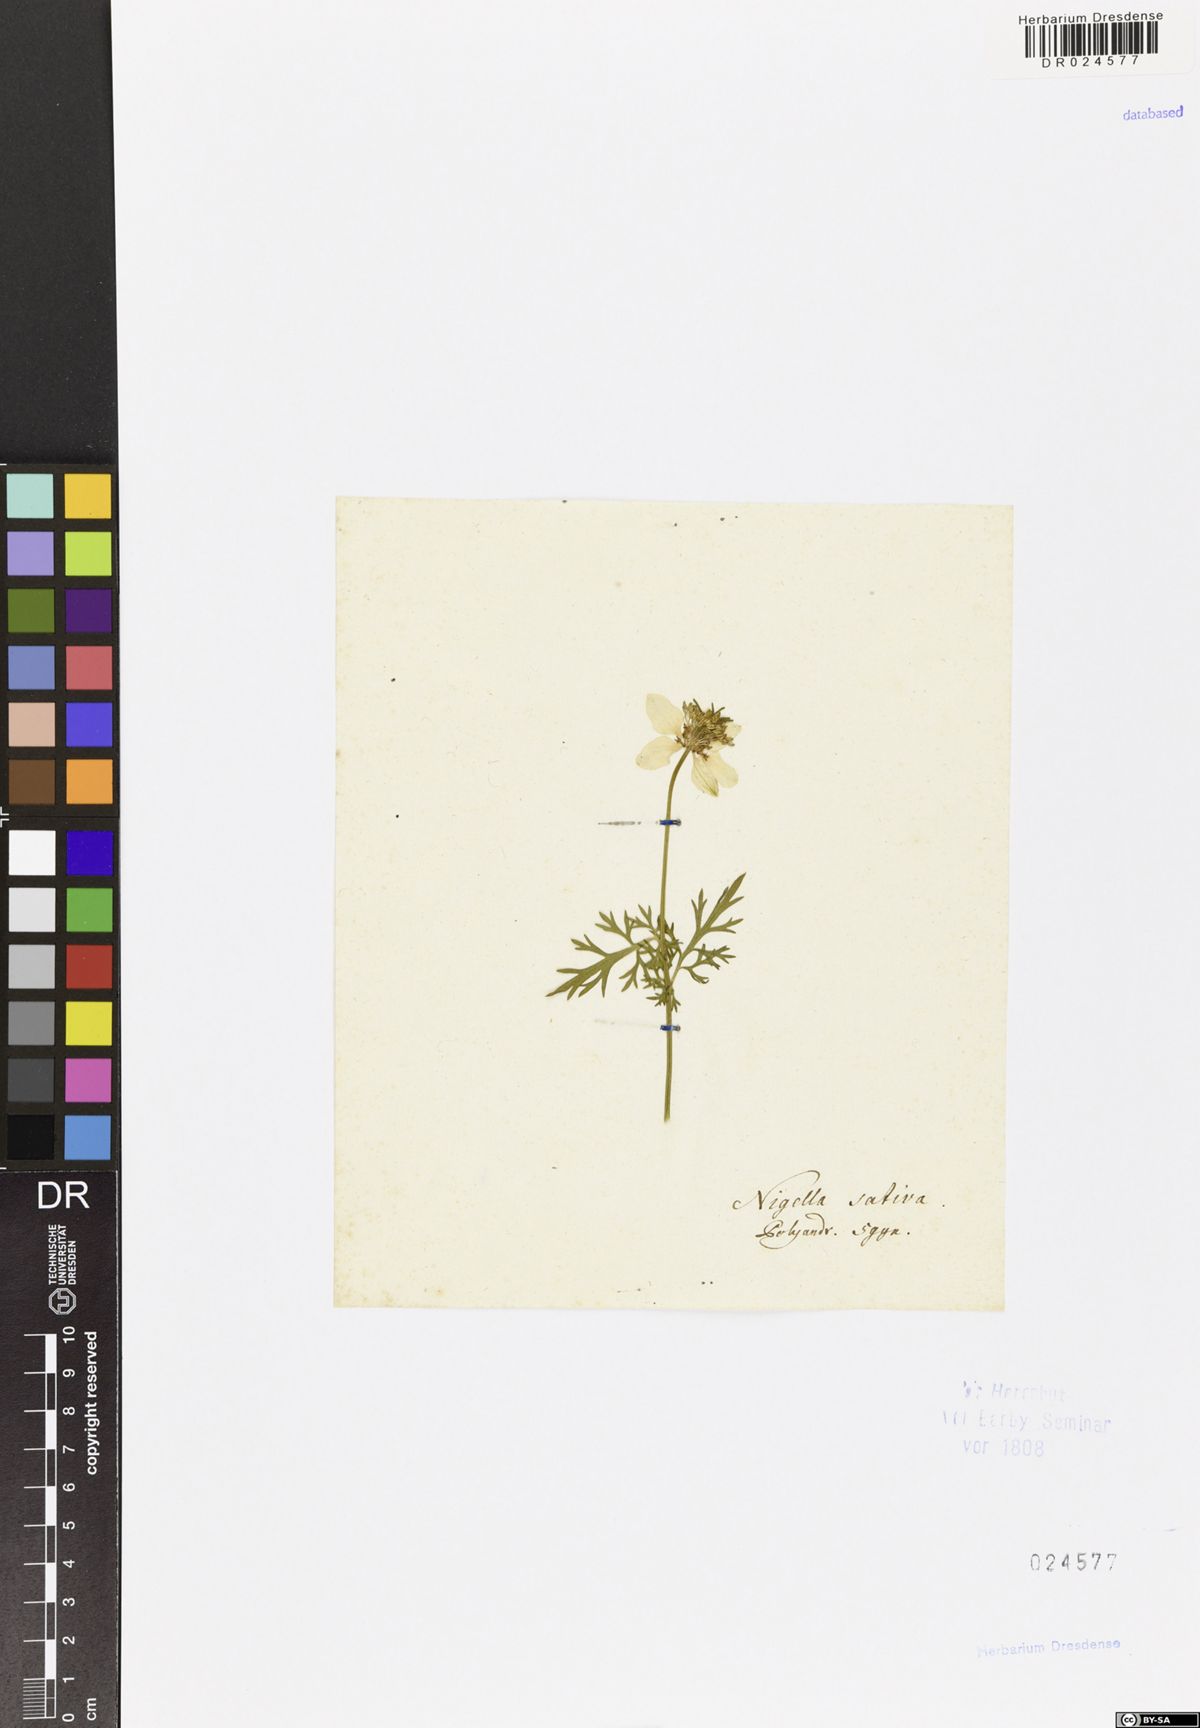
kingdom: Plantae
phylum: Tracheophyta
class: Magnoliopsida
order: Ranunculales
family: Ranunculaceae
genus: Nigella
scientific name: Nigella sativa
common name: Black-cumin
